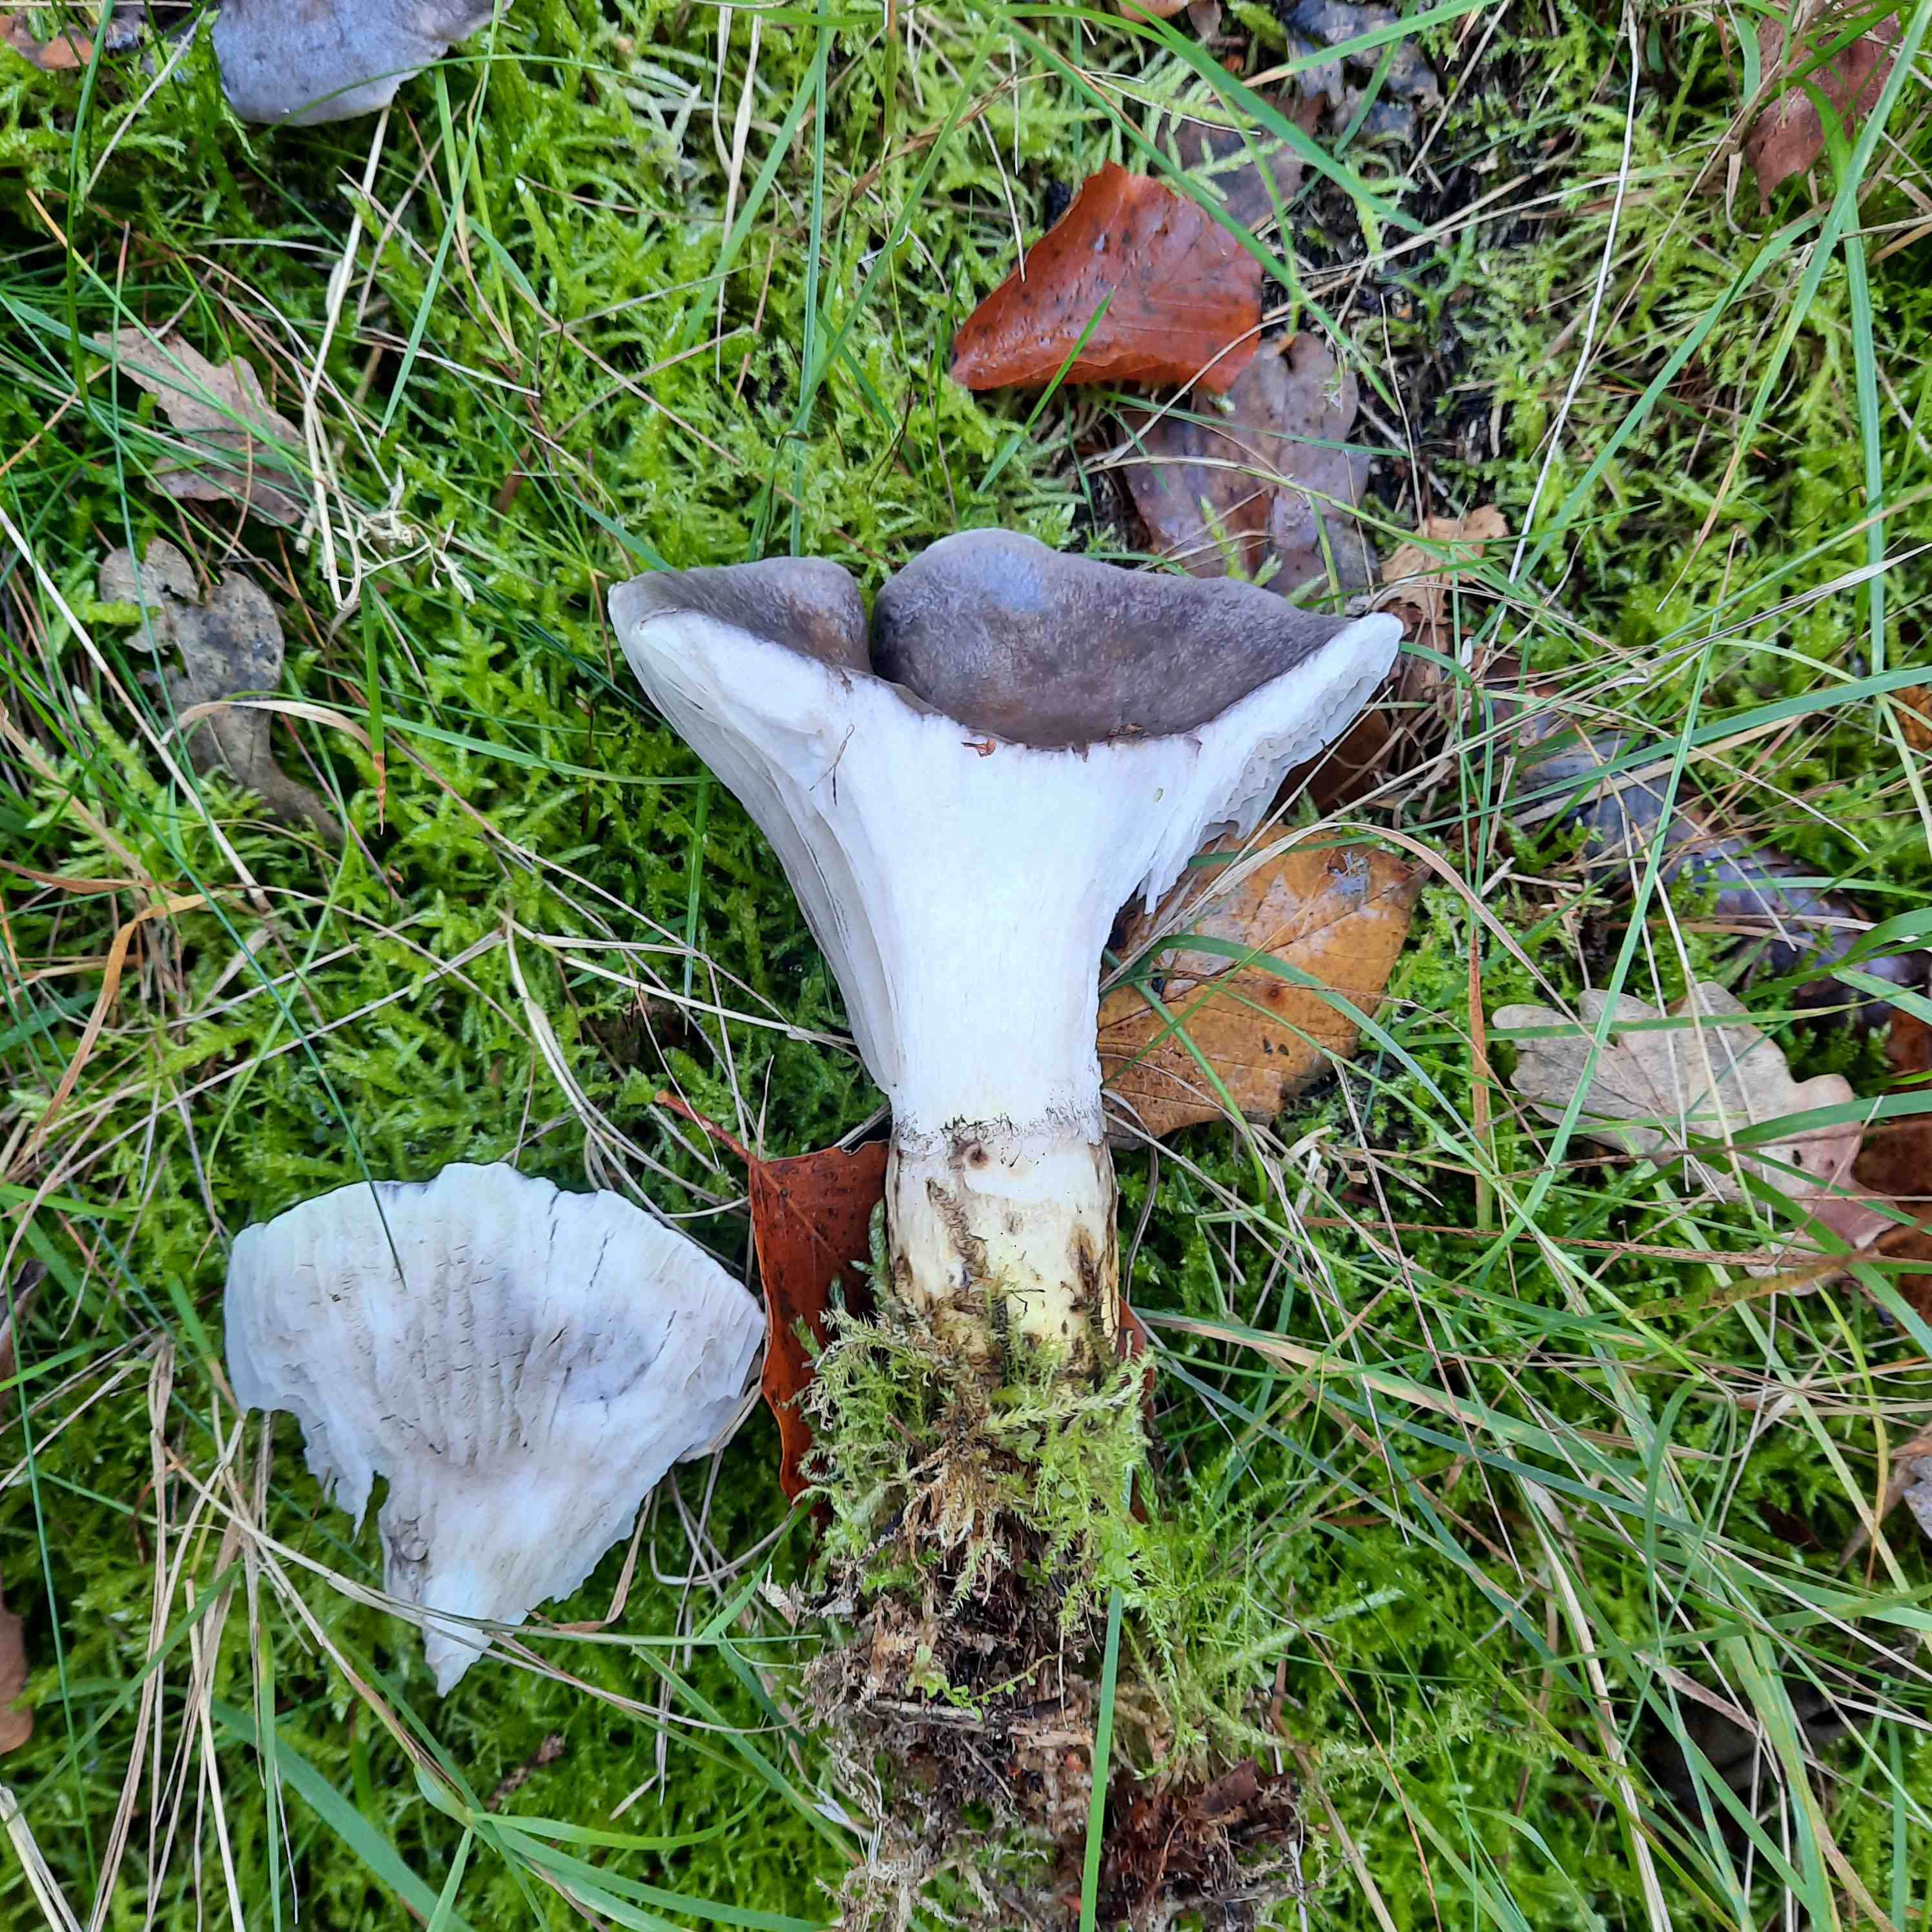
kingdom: Fungi
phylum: Basidiomycota
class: Agaricomycetes
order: Boletales
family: Gomphidiaceae
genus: Gomphidius
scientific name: Gomphidius glutinosus
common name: grå slimslør
